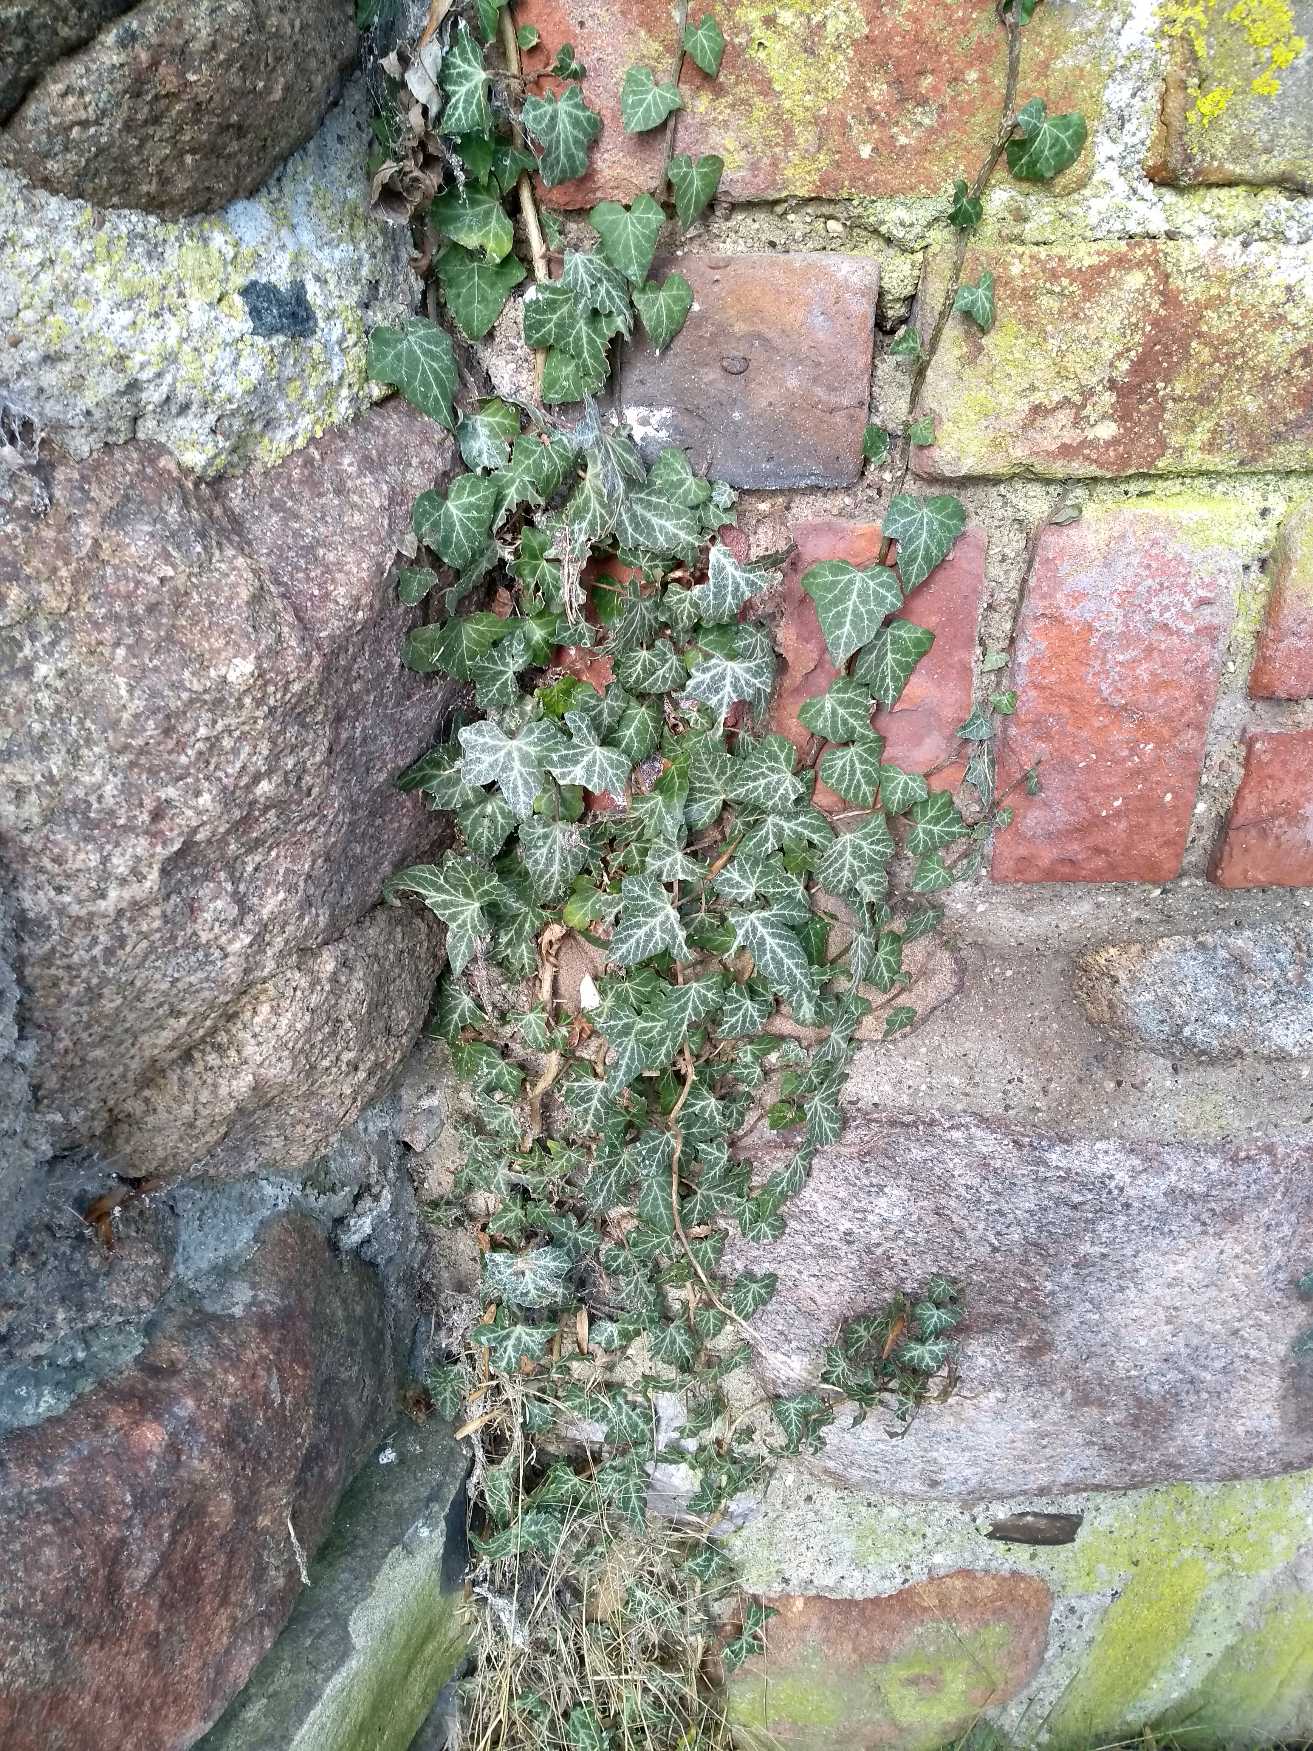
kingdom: Plantae
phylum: Tracheophyta
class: Magnoliopsida
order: Apiales
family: Araliaceae
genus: Hedera
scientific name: Hedera helix
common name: Vedbend
